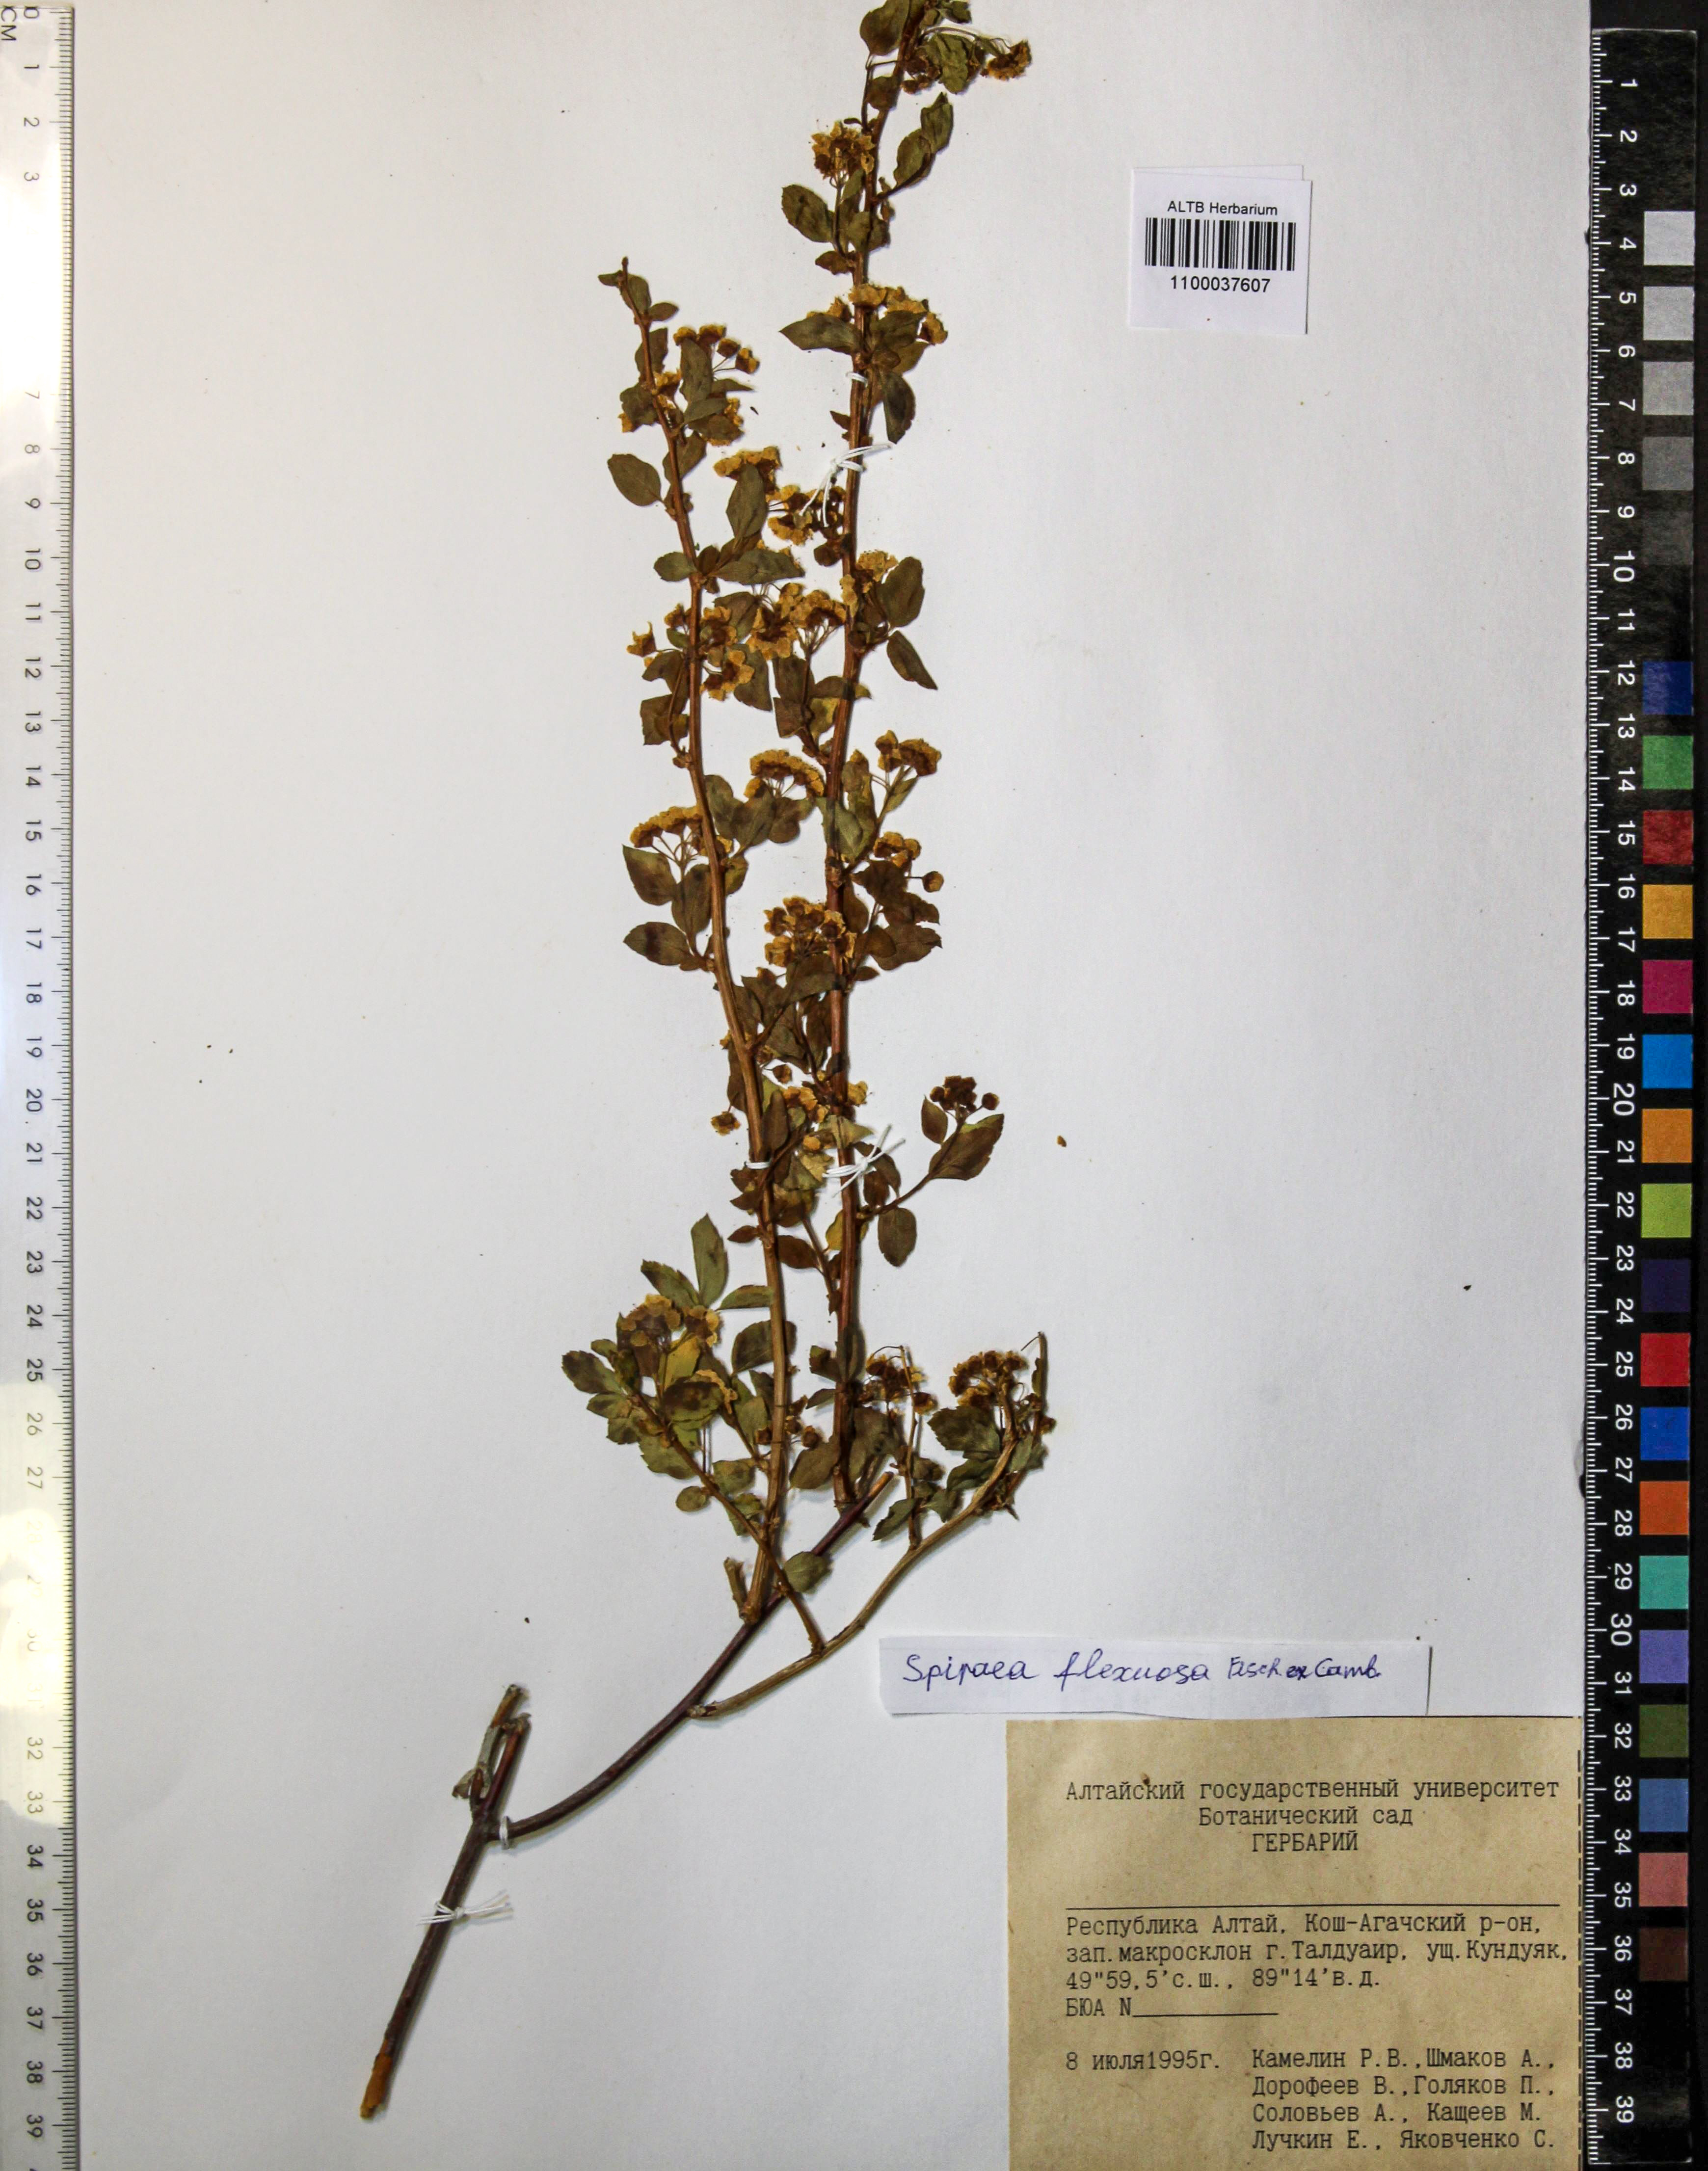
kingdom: Plantae
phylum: Tracheophyta
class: Magnoliopsida
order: Rosales
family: Rosaceae
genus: Spiraea
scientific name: Spiraea flexuosa
